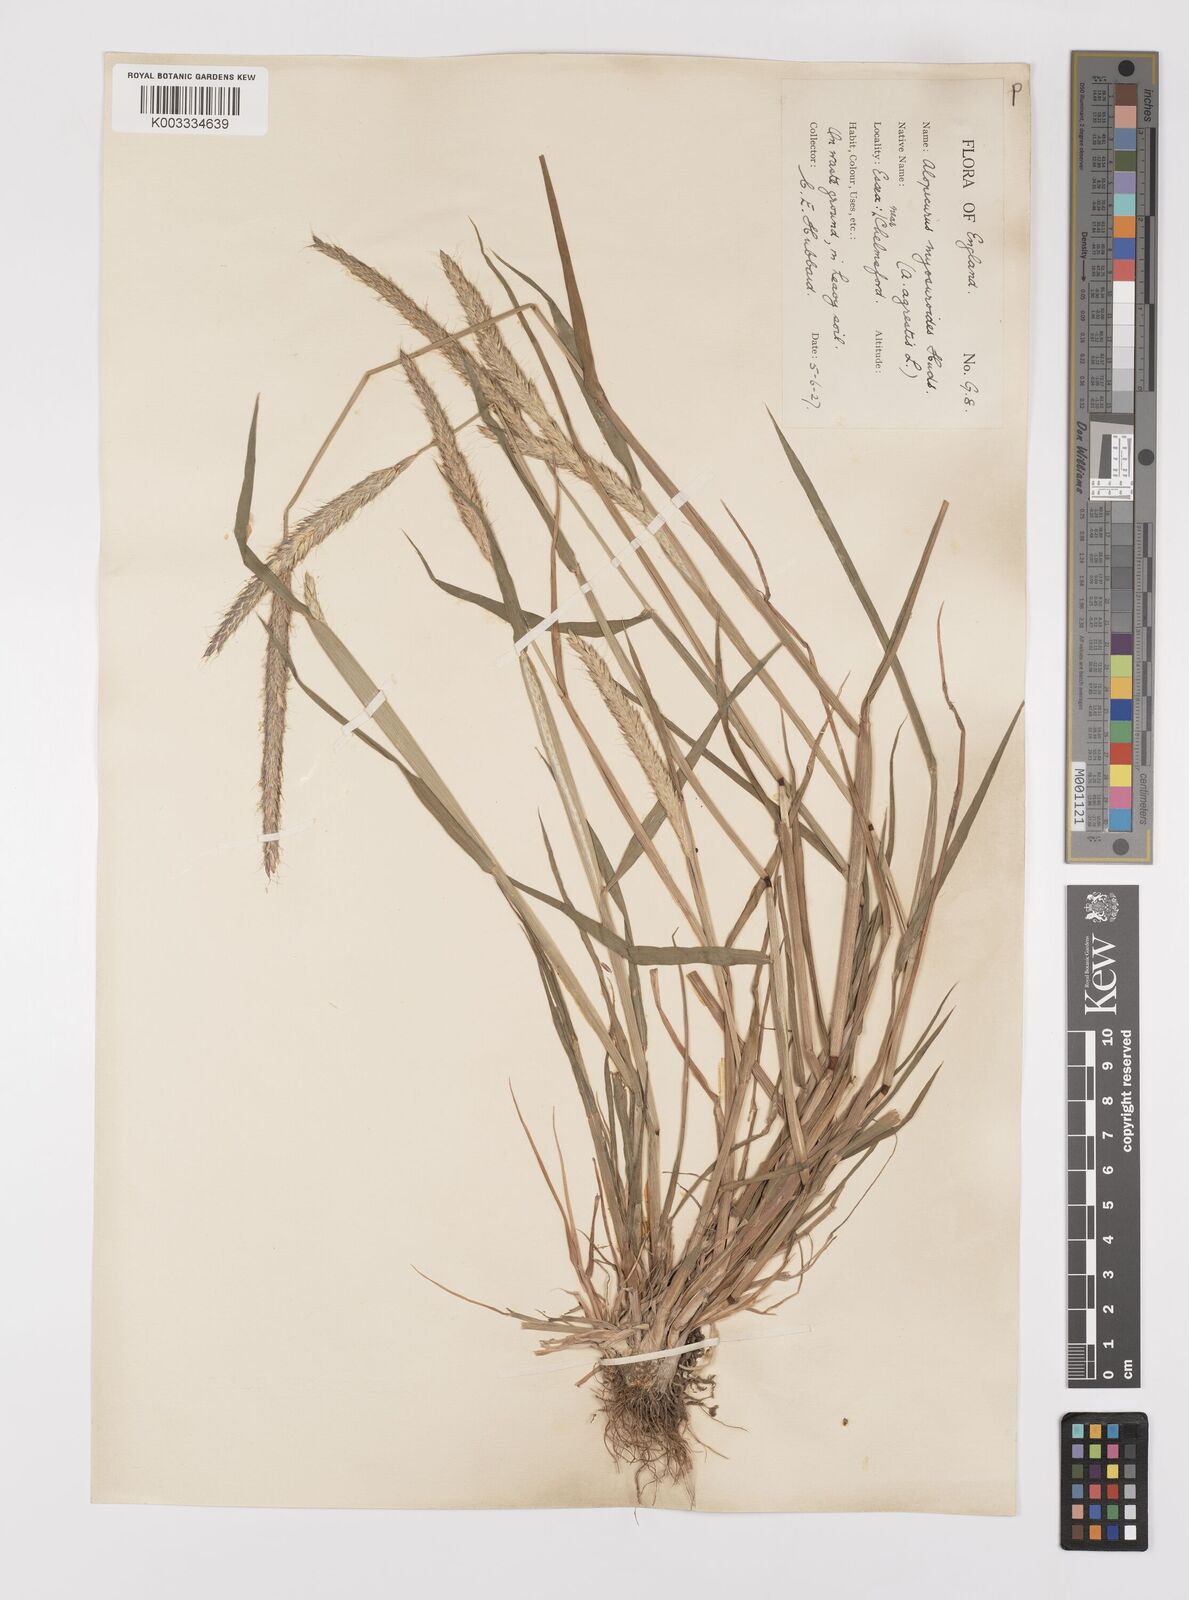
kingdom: Plantae
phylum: Tracheophyta
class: Liliopsida
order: Poales
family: Poaceae
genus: Alopecurus
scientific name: Alopecurus myosuroides
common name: Black-grass
